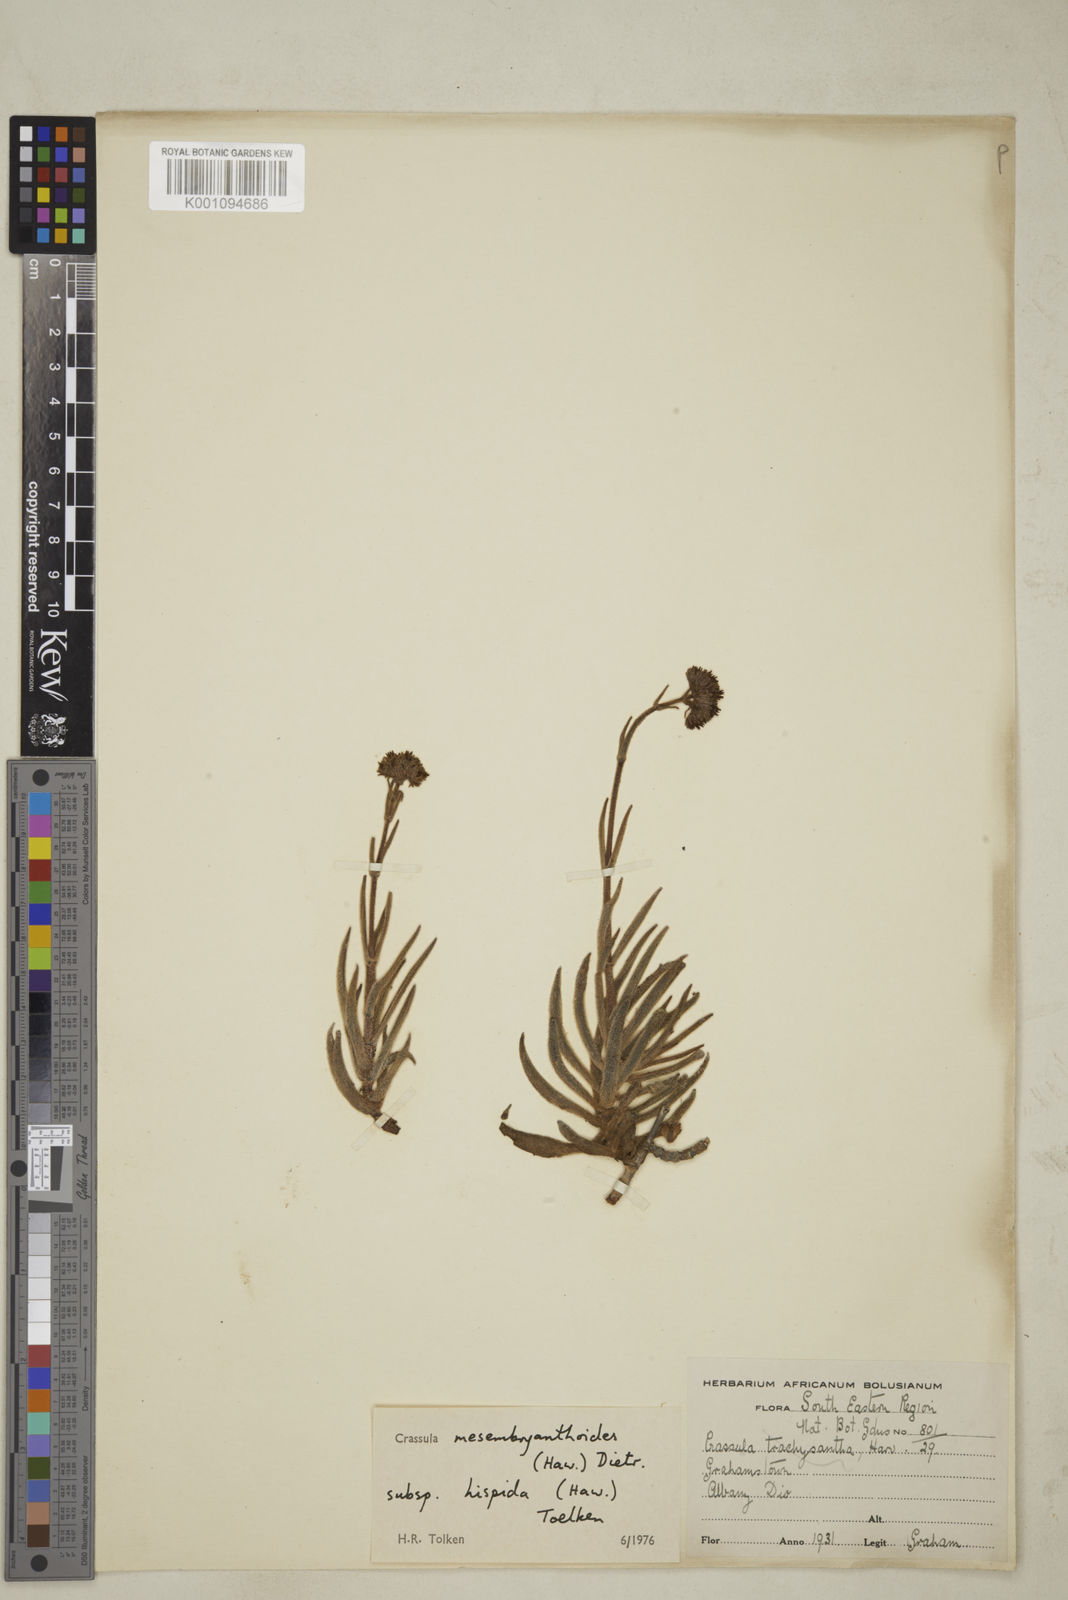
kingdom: Plantae
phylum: Tracheophyta
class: Magnoliopsida
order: Saxifragales
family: Crassulaceae
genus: Crassula
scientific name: Crassula
